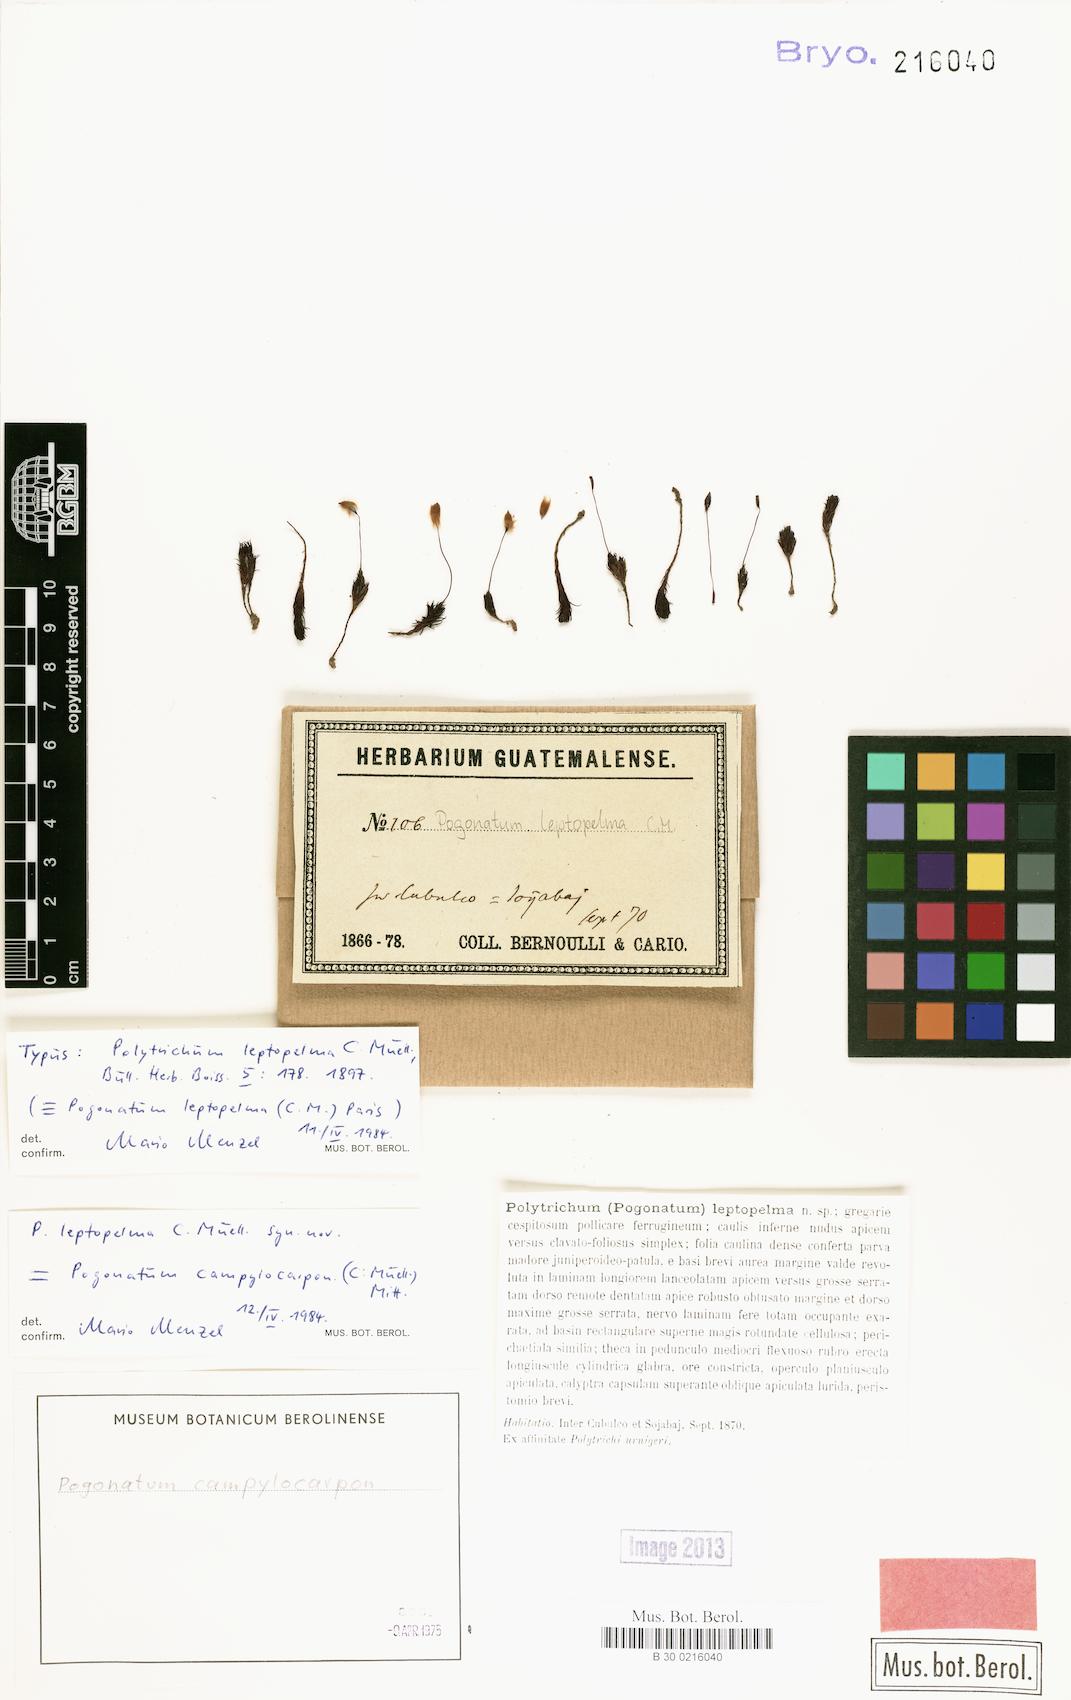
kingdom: Plantae
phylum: Bryophyta
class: Polytrichopsida
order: Polytrichales
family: Polytrichaceae
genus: Pogonatum
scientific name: Pogonatum campylocarpum
